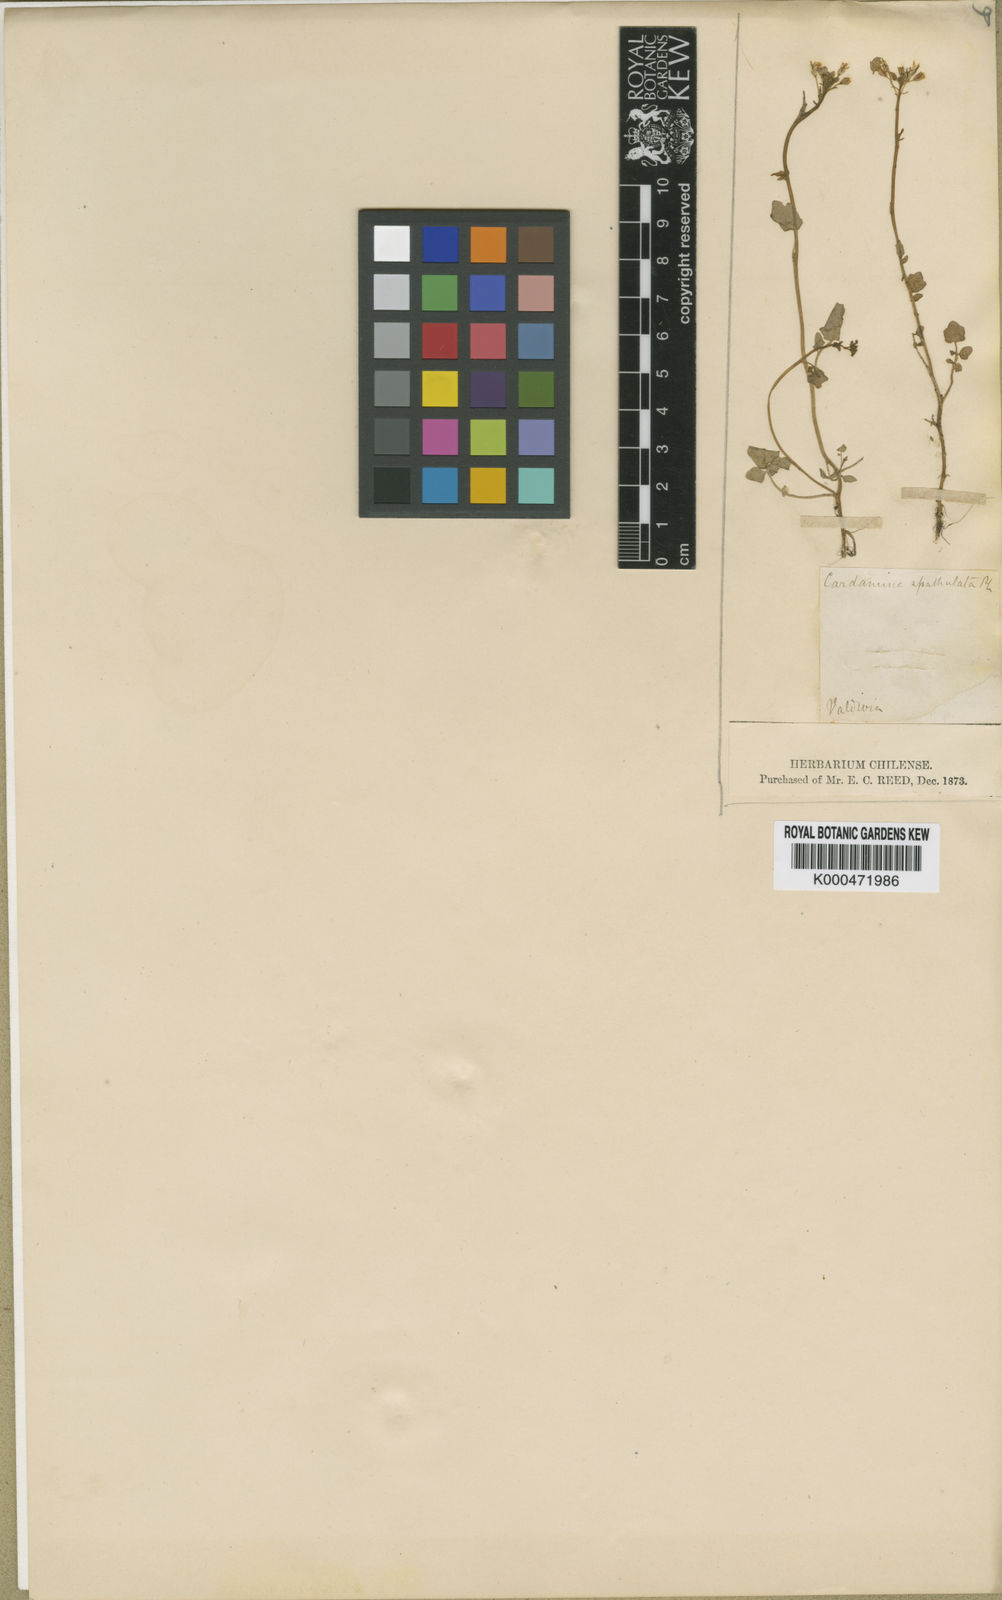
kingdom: Plantae
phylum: Tracheophyta
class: Magnoliopsida
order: Brassicales
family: Brassicaceae
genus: Cardamine
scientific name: Cardamine
